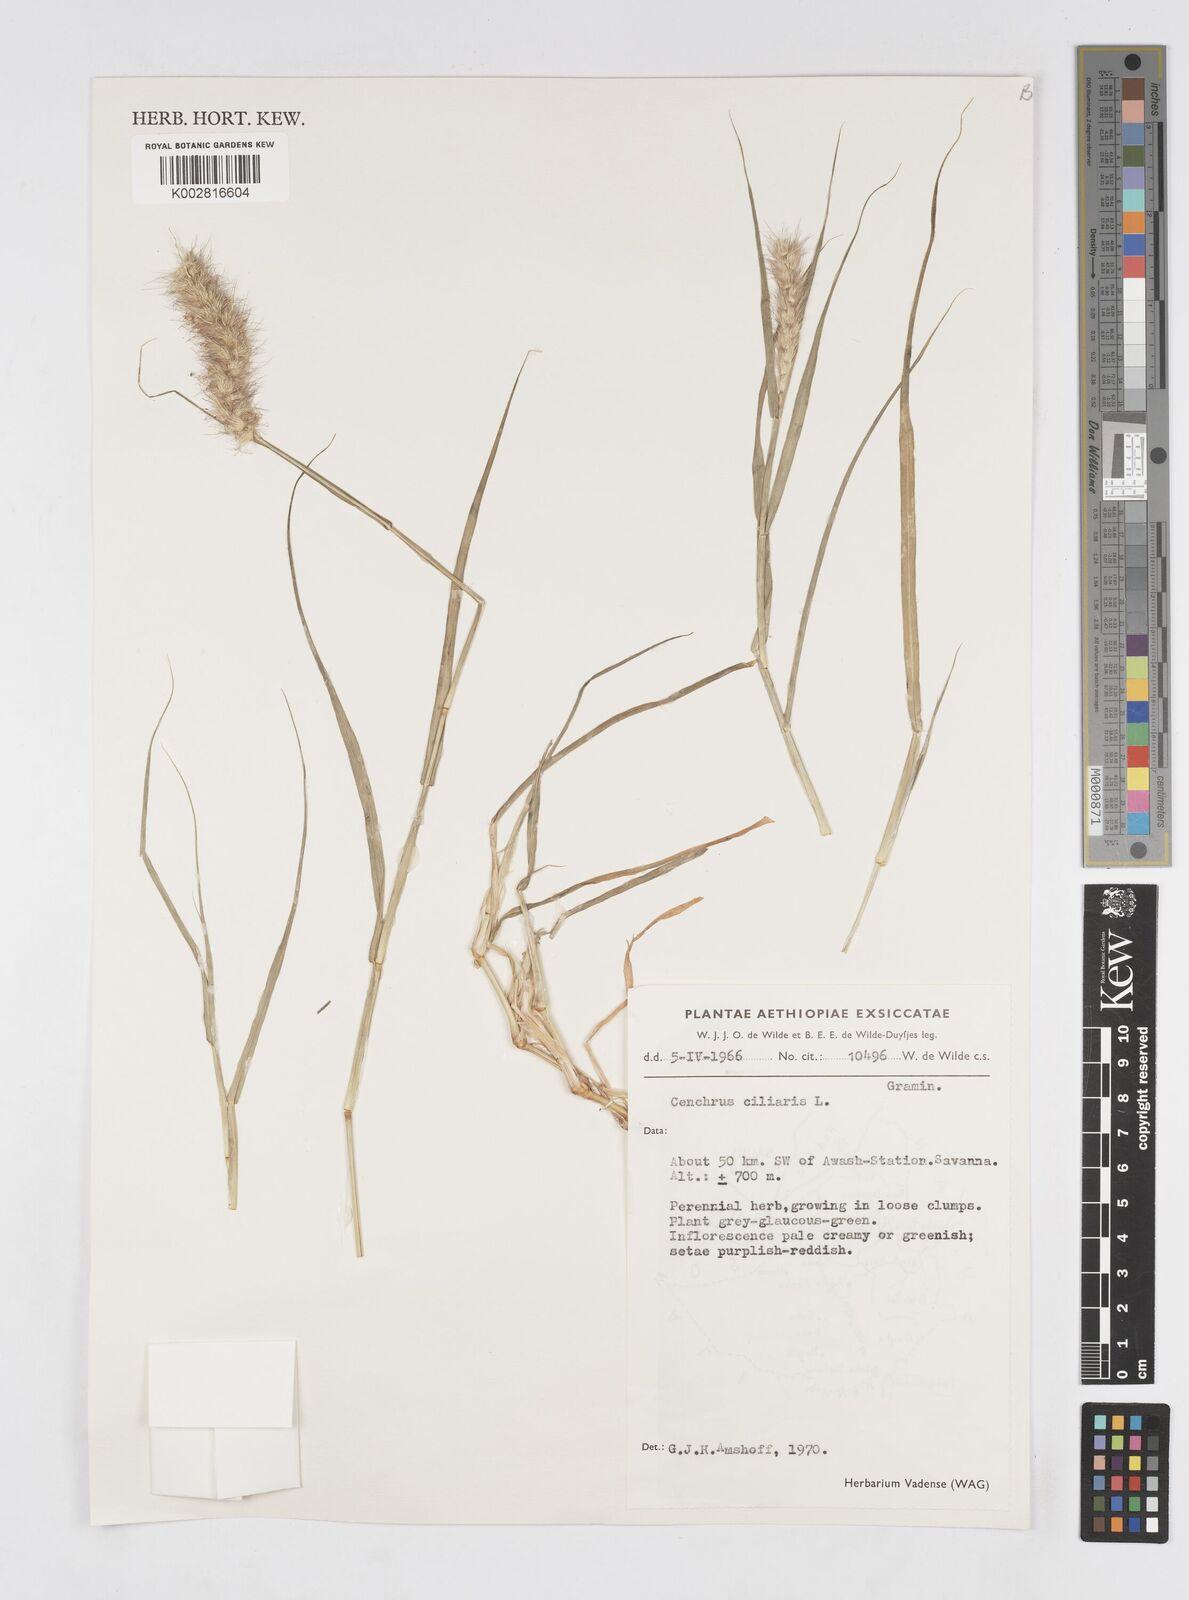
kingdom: Plantae
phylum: Tracheophyta
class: Liliopsida
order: Poales
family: Poaceae
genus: Cenchrus
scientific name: Cenchrus ciliaris
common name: Buffelgrass
